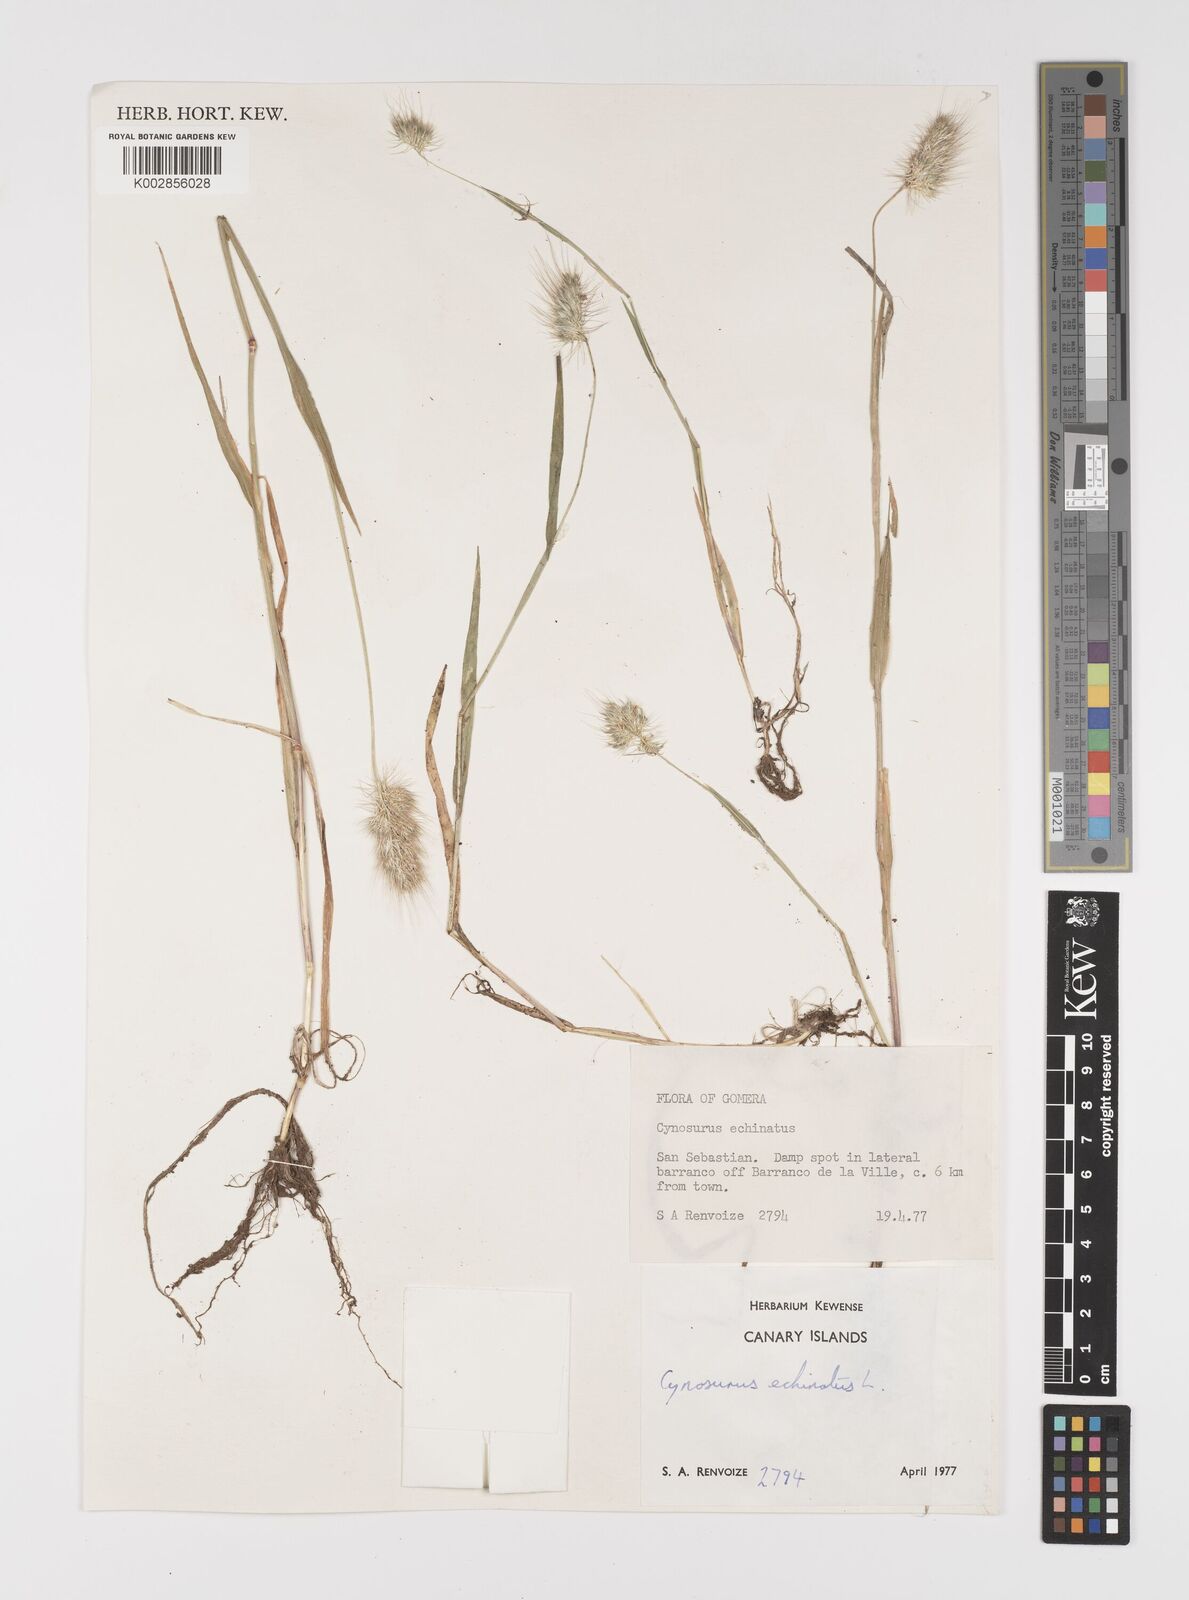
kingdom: Plantae
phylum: Tracheophyta
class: Liliopsida
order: Poales
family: Poaceae
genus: Cynosurus
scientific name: Cynosurus echinatus
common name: Rough dog's-tail
